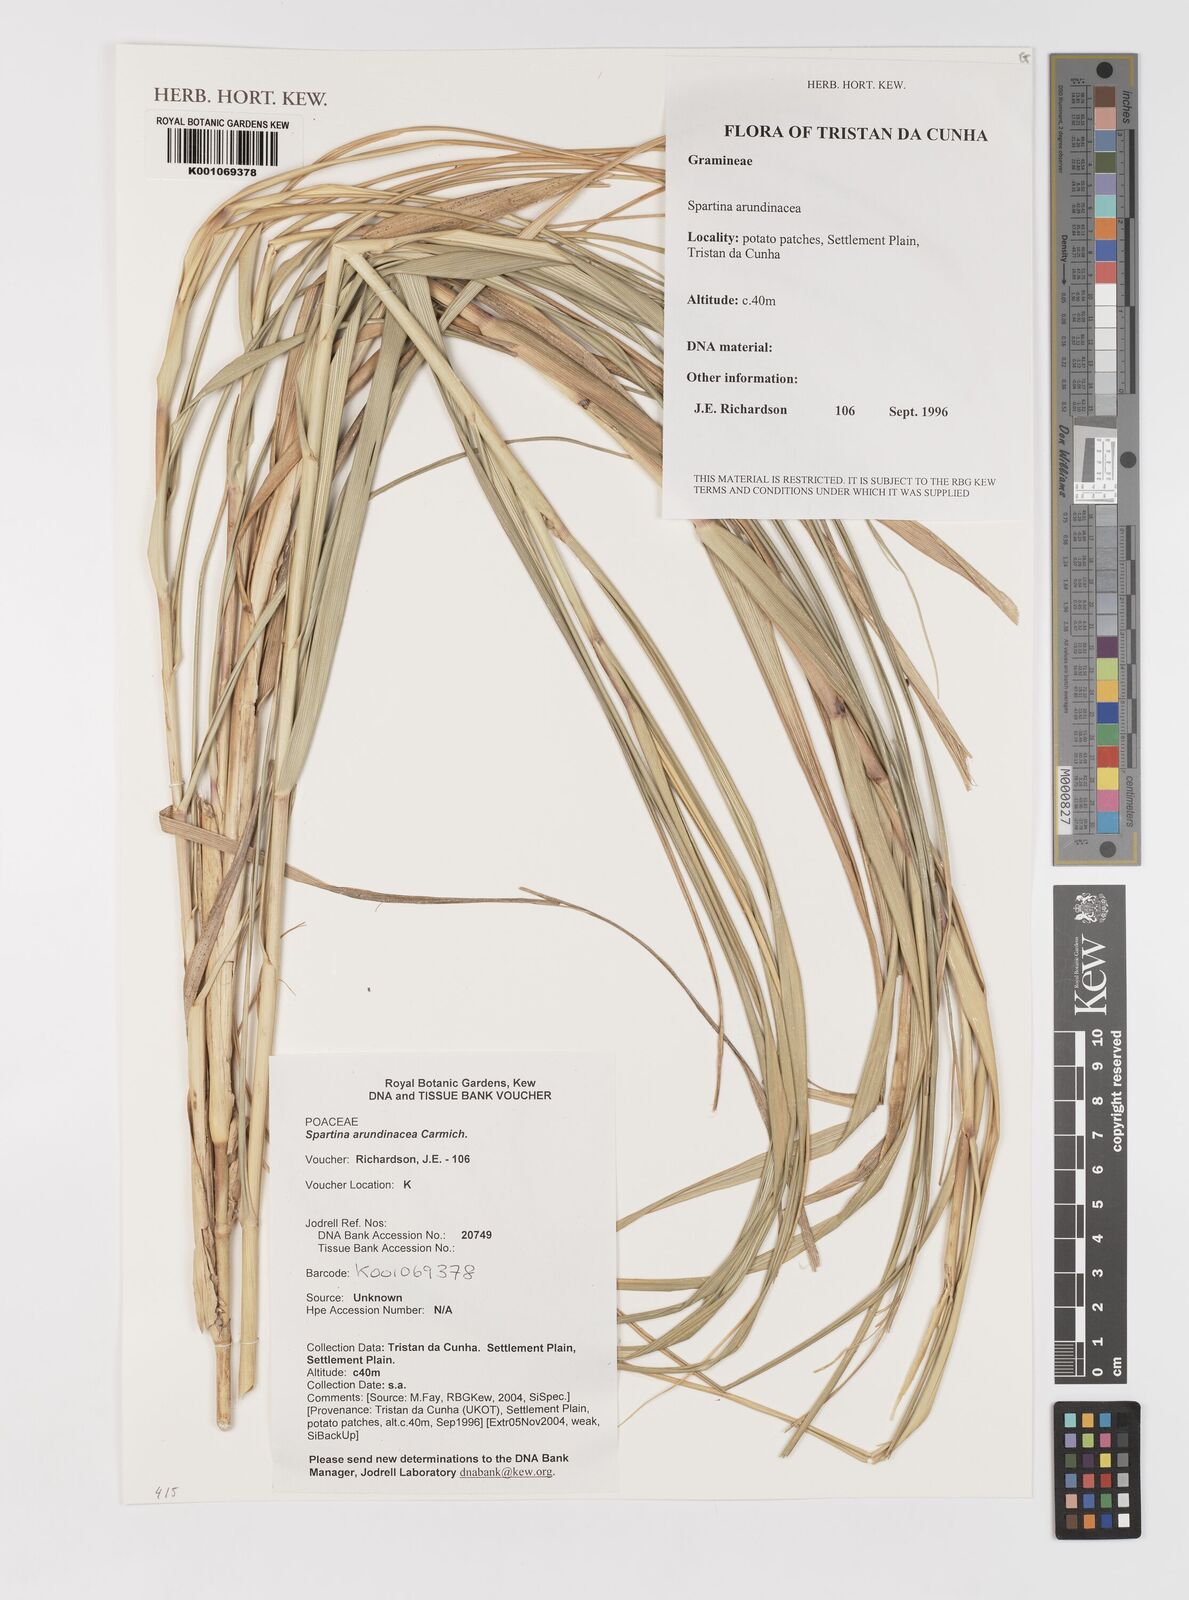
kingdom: Plantae
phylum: Tracheophyta
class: Magnoliopsida
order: Rosales
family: Moraceae
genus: Ficus
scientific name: Ficus pseudopalma
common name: Palm-like fig
